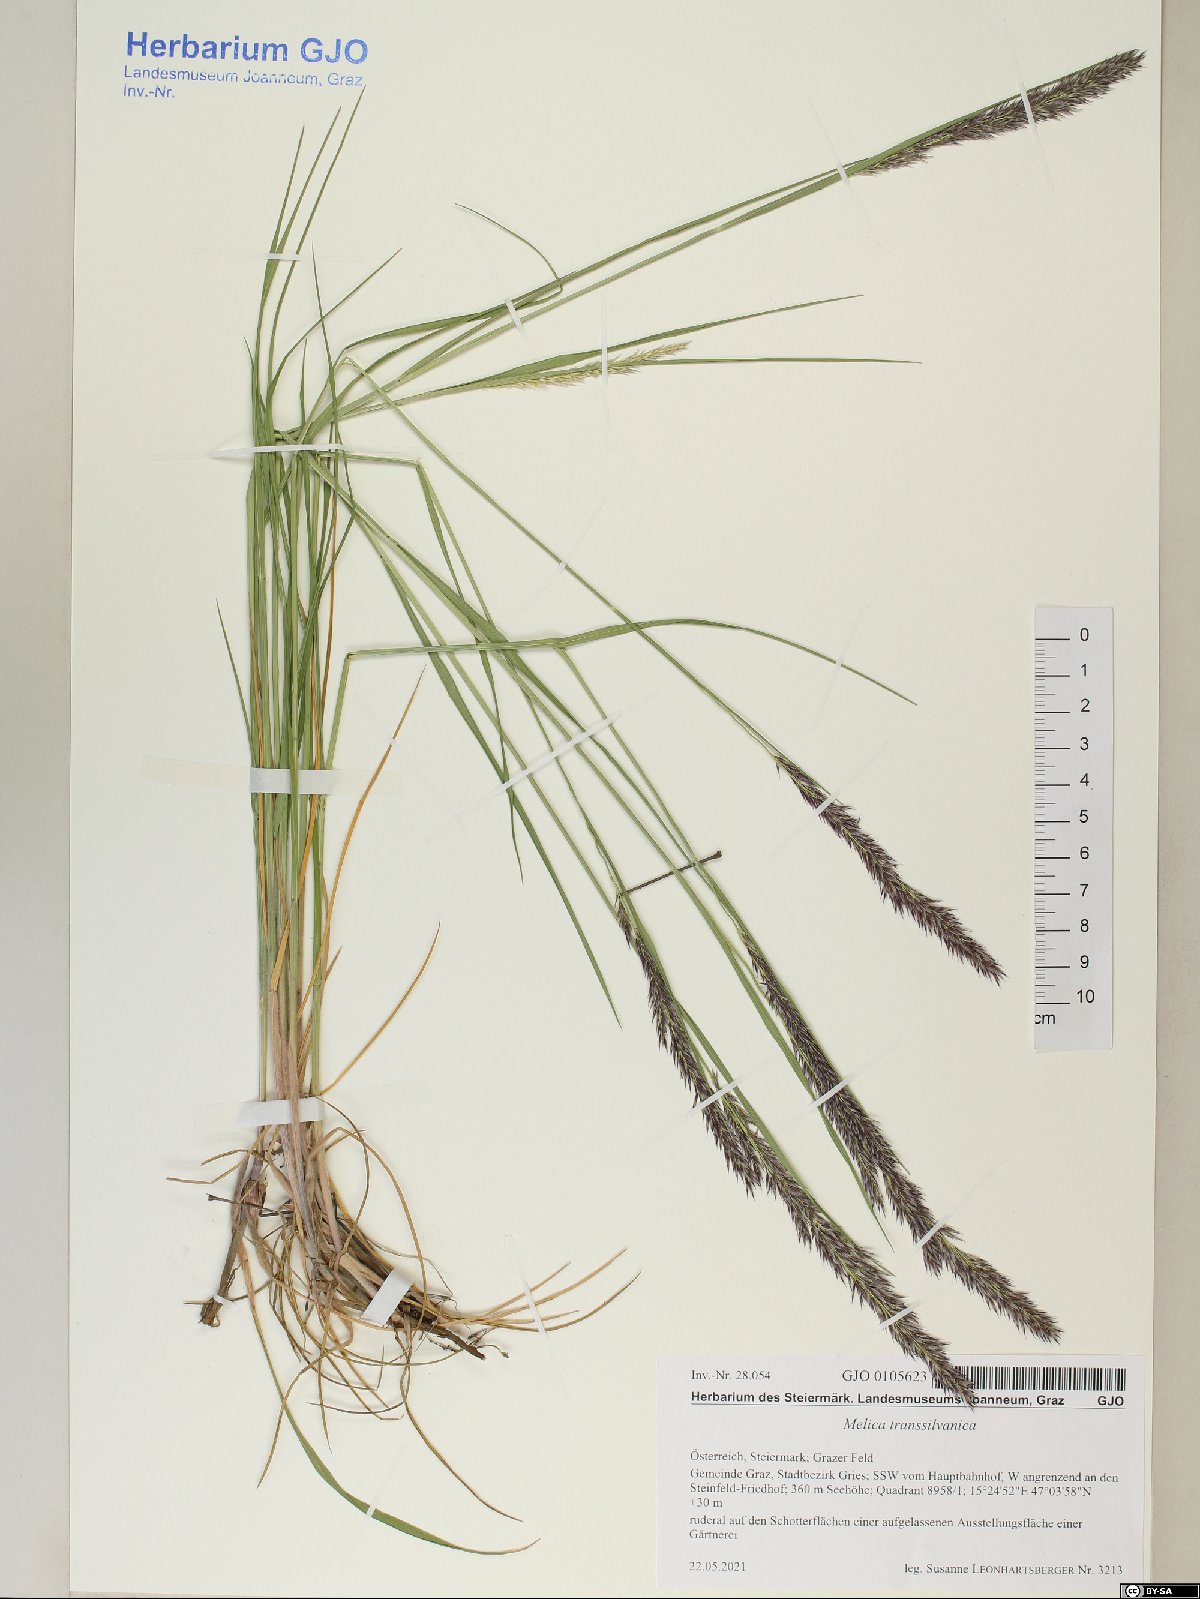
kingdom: Plantae
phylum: Tracheophyta
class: Liliopsida
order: Poales
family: Poaceae
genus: Melica
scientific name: Melica transsilvanica
